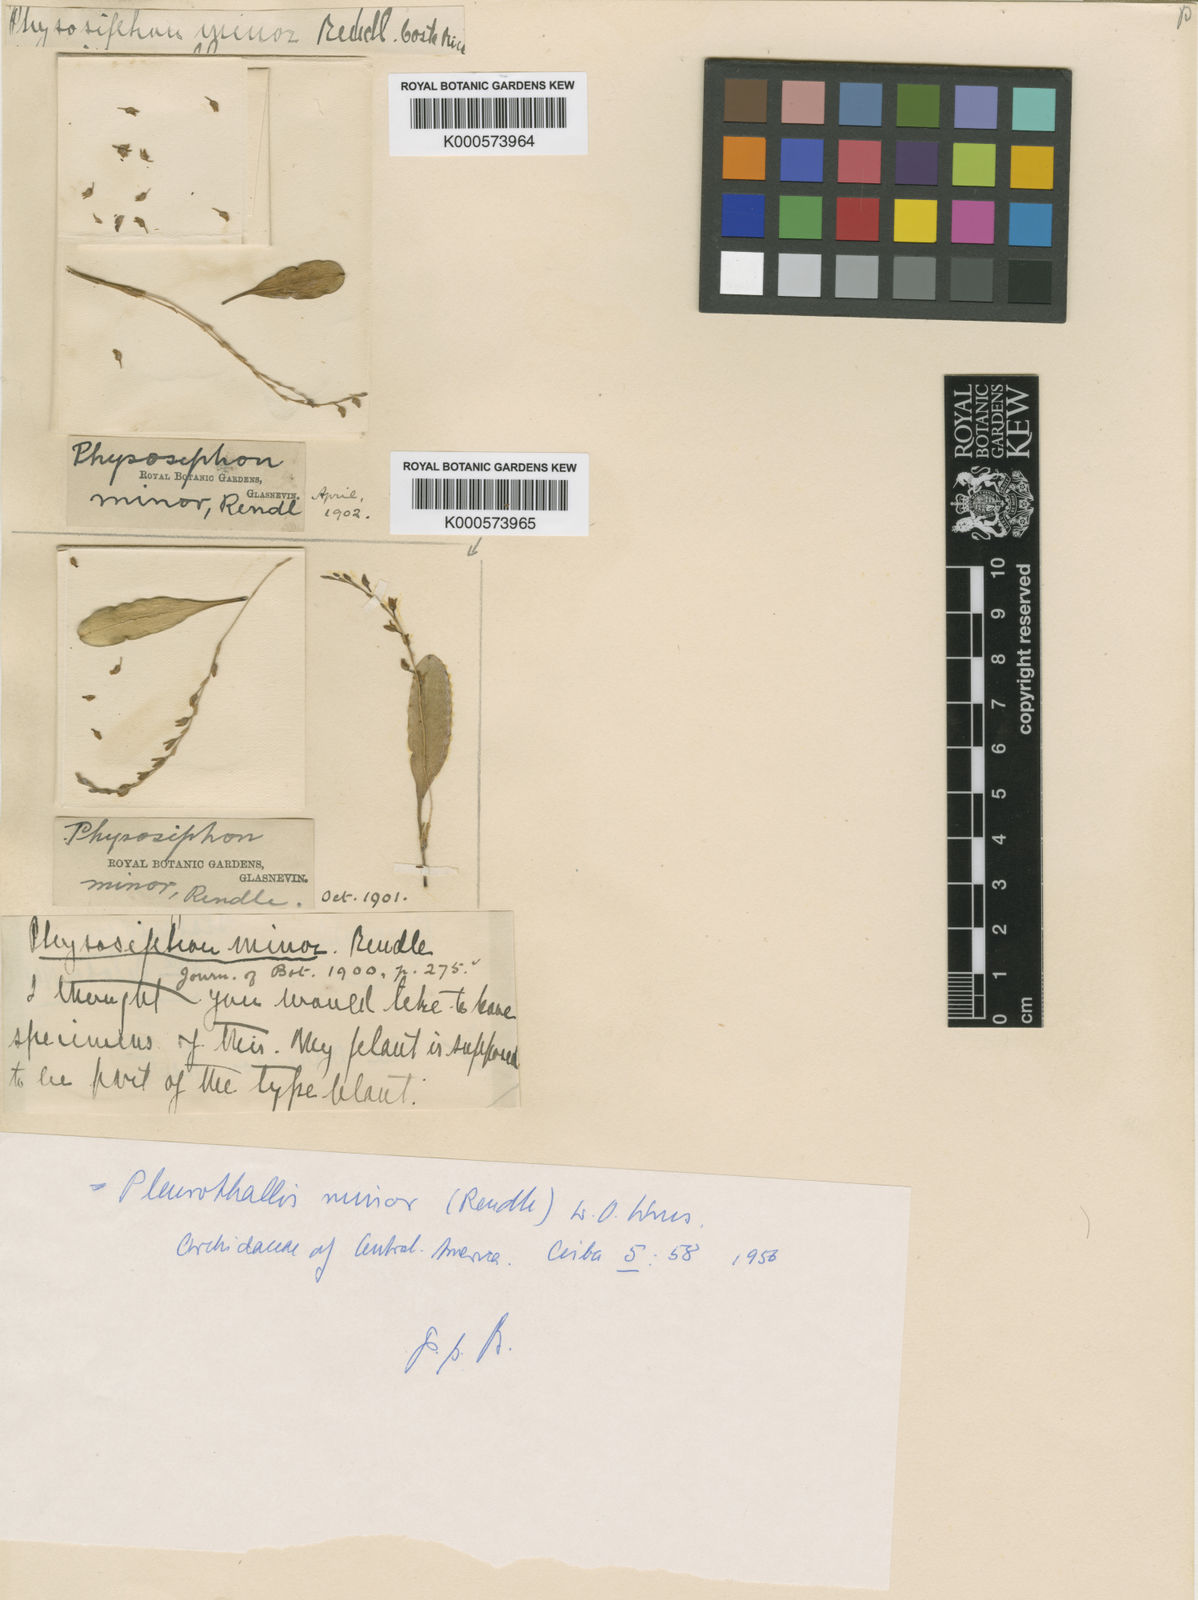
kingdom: Plantae
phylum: Tracheophyta
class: Liliopsida
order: Asparagales
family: Orchidaceae
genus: Stelis
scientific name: Stelis punctulata
